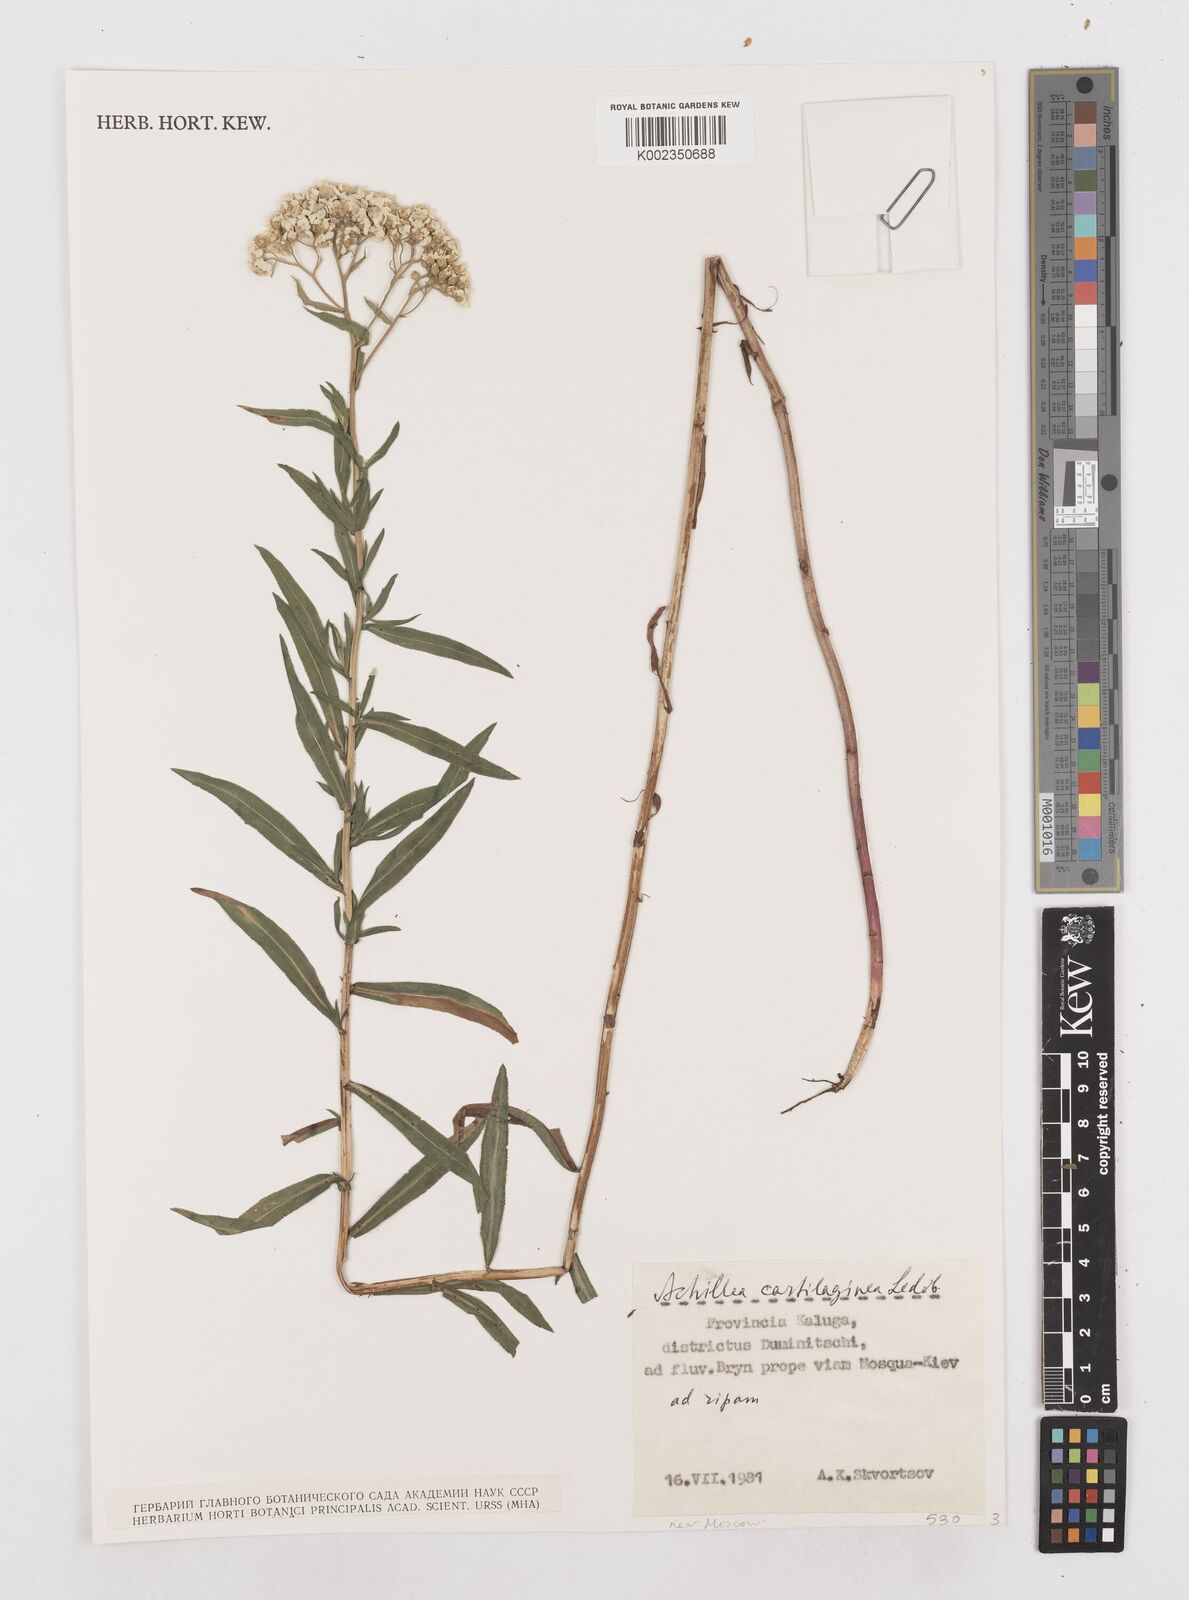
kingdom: Plantae
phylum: Tracheophyta
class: Magnoliopsida
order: Asterales
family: Asteraceae
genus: Achillea
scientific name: Achillea salicifolia
